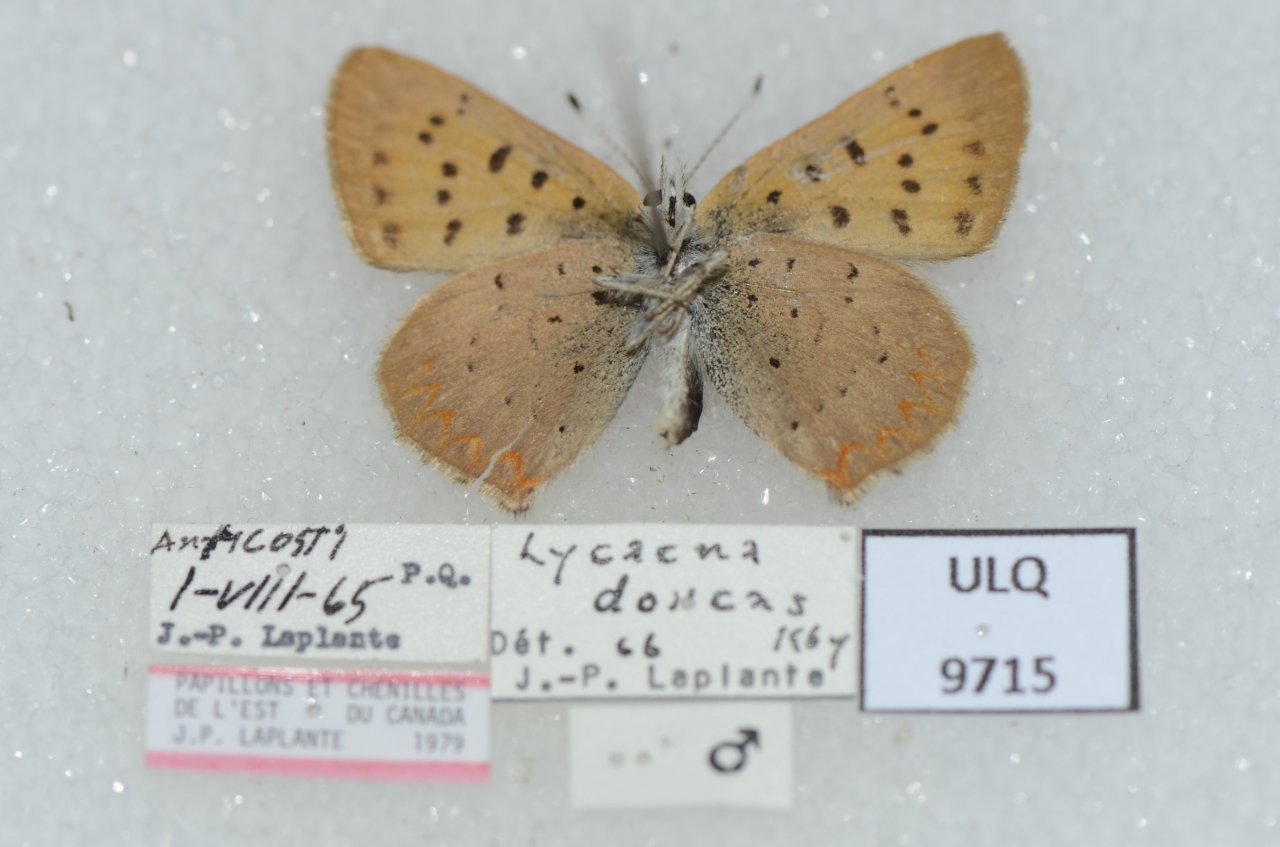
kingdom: Animalia
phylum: Arthropoda
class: Insecta
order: Lepidoptera
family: Lycaenidae
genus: Epidemia
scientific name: Epidemia dorcas
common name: Dorcas Copper
